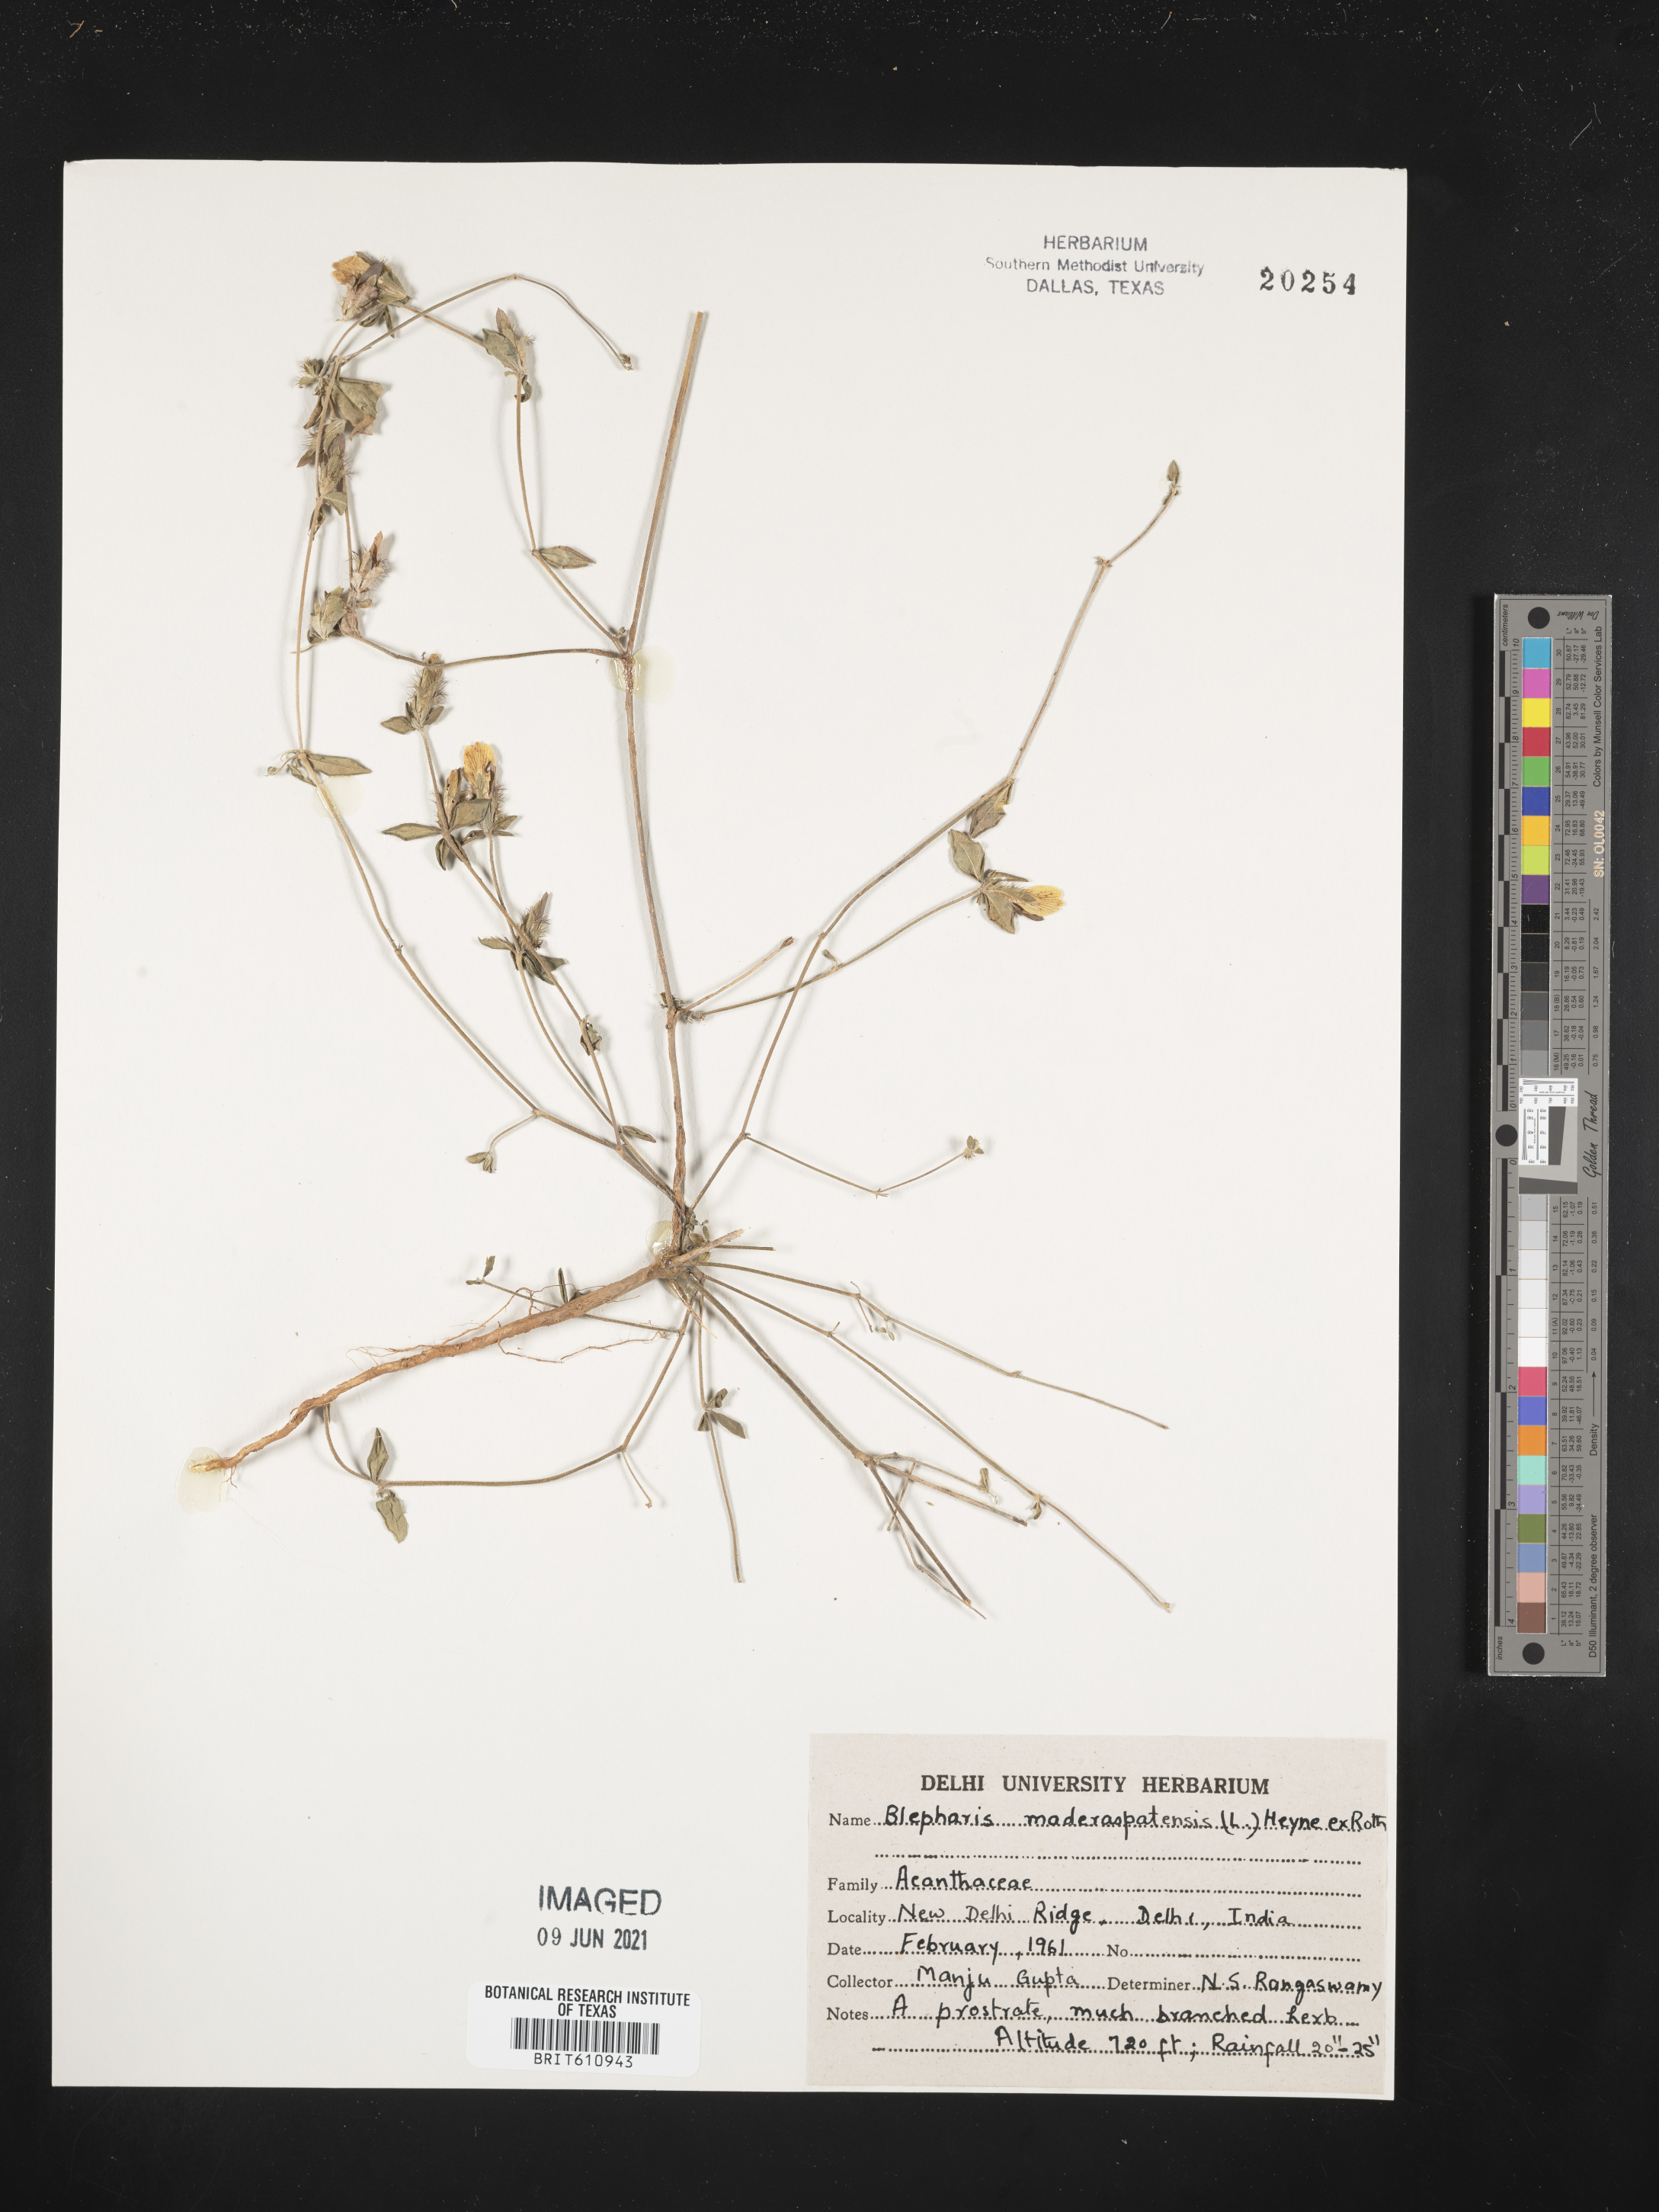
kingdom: Plantae
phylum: Tracheophyta
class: Magnoliopsida
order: Lamiales
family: Acanthaceae
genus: Blepharis
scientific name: Blepharis maderaspatensis
